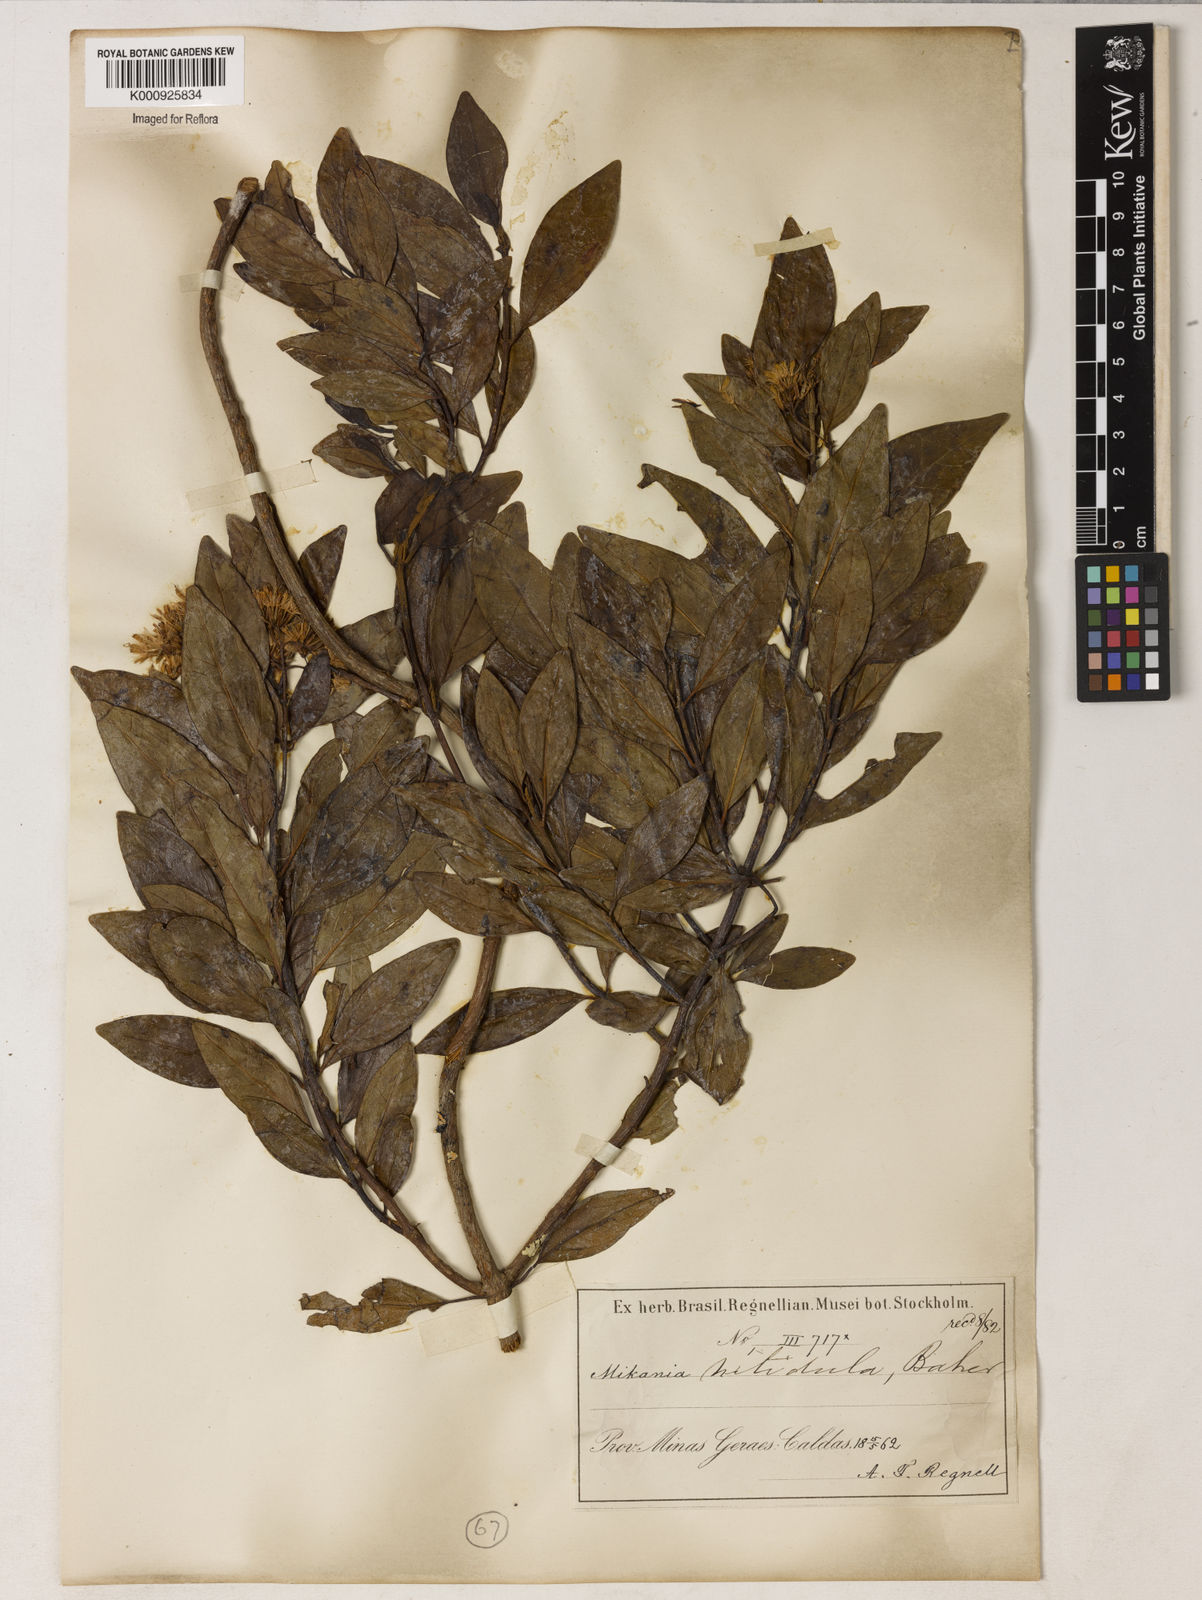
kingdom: Plantae
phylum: Tracheophyta
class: Magnoliopsida
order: Asterales
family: Asteraceae
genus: Mikania
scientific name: Mikania lindbergii
